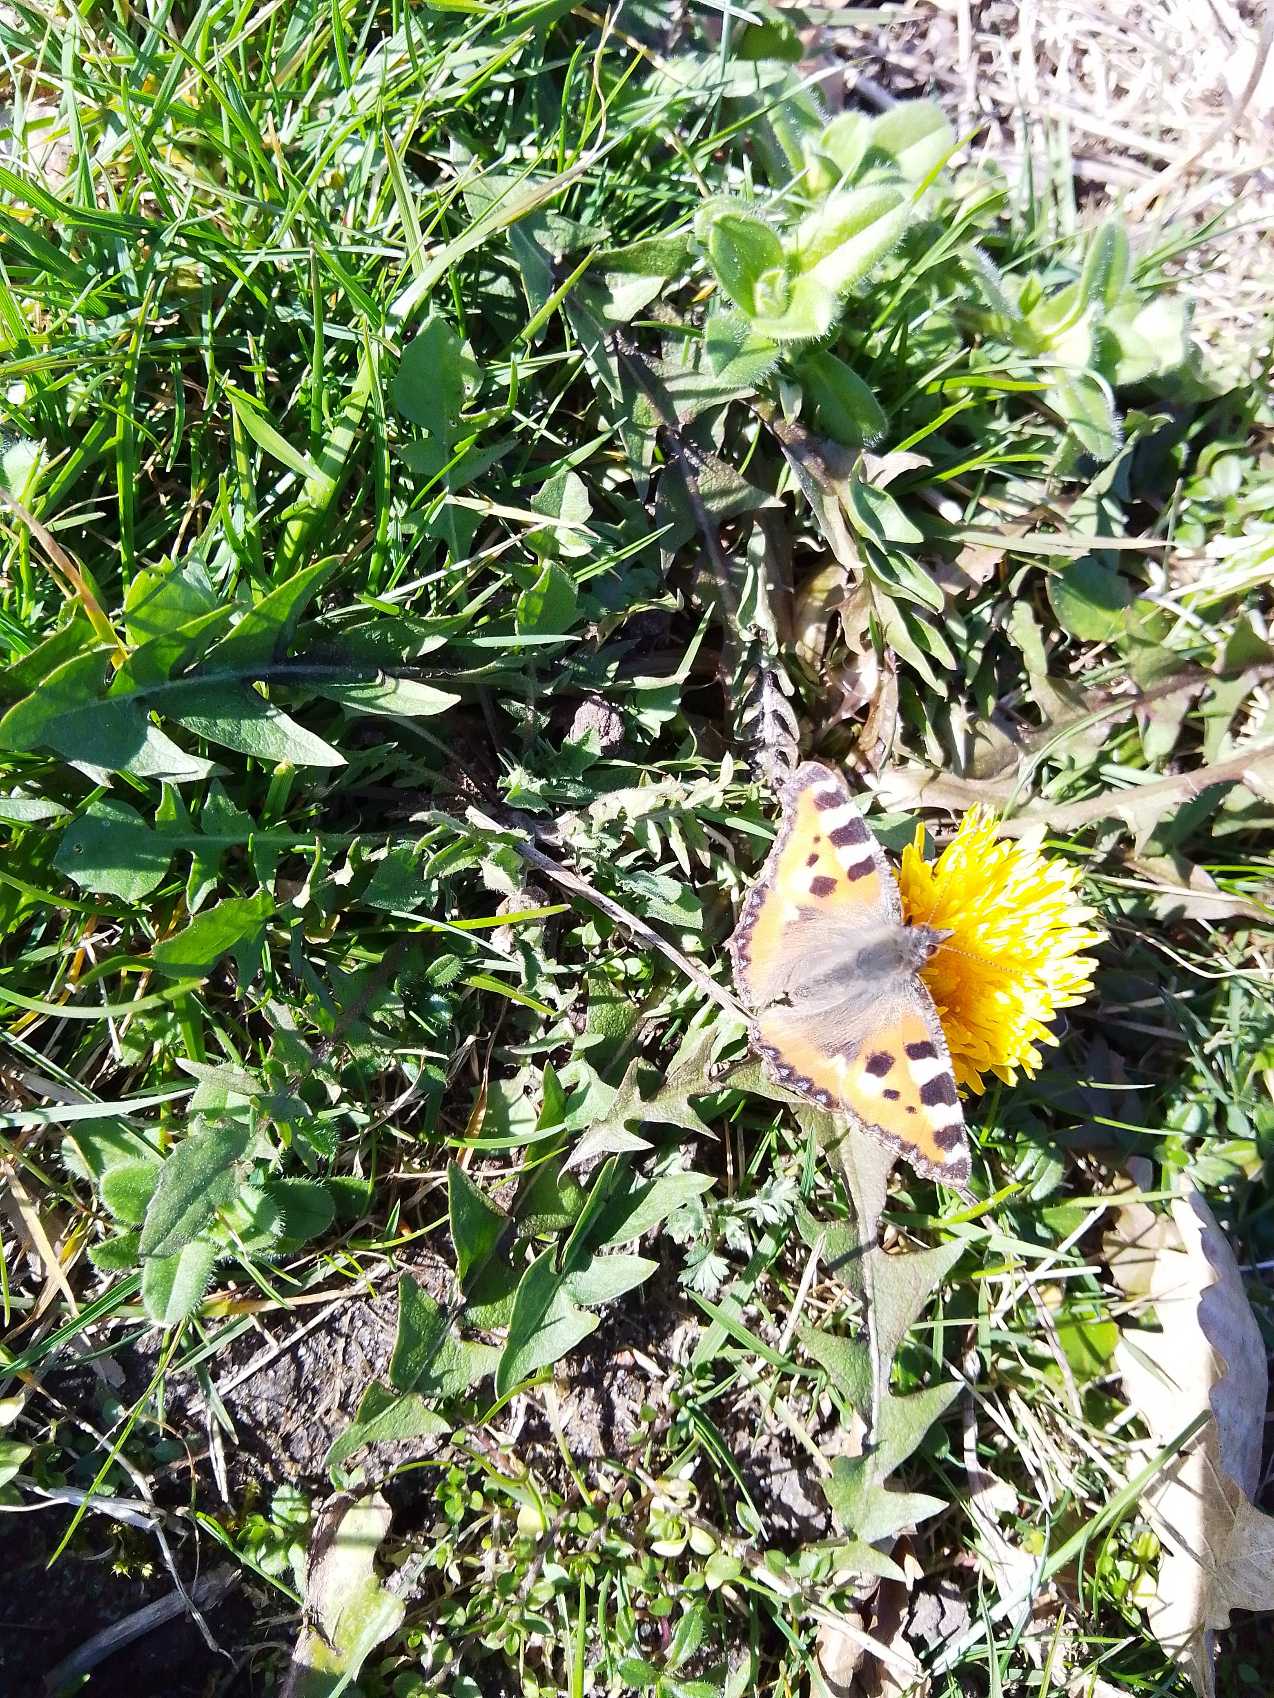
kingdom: Animalia
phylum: Arthropoda
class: Insecta
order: Lepidoptera
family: Nymphalidae
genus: Aglais
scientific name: Aglais urticae
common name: Nældens takvinge
